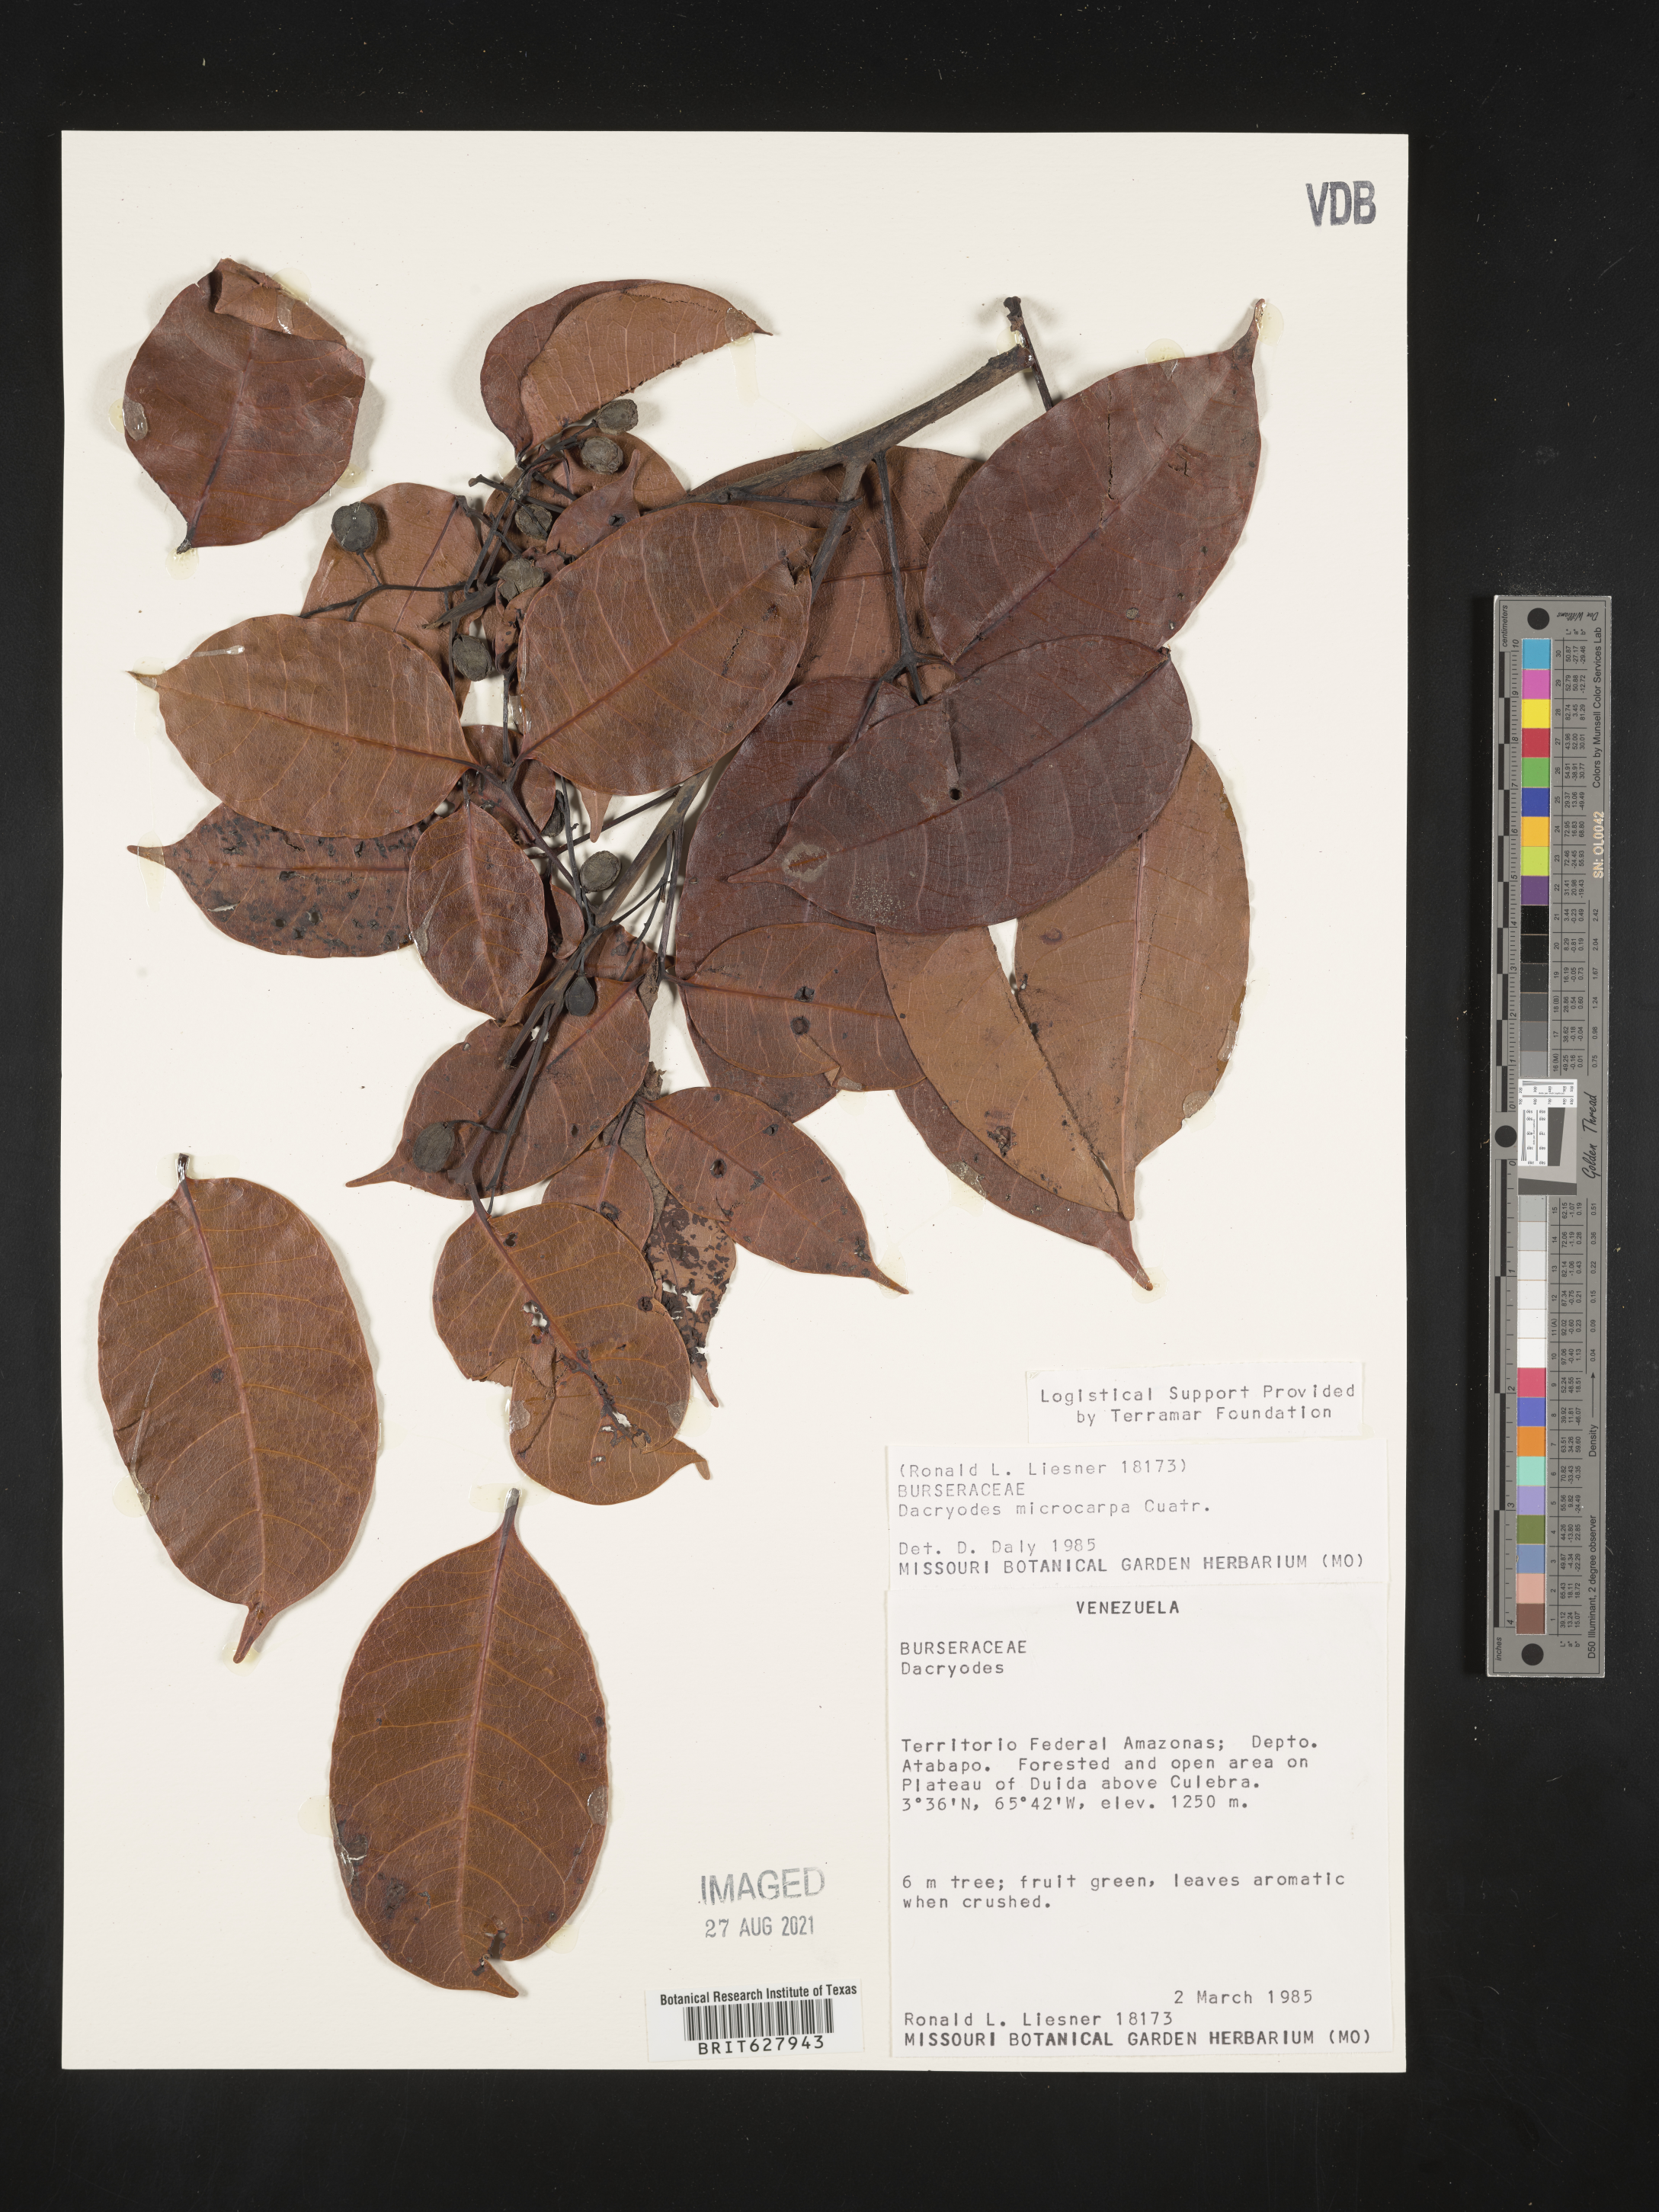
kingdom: Plantae
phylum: Tracheophyta
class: Magnoliopsida
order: Sapindales
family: Burseraceae
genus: Dacryodes
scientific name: Dacryodes microcarpa
